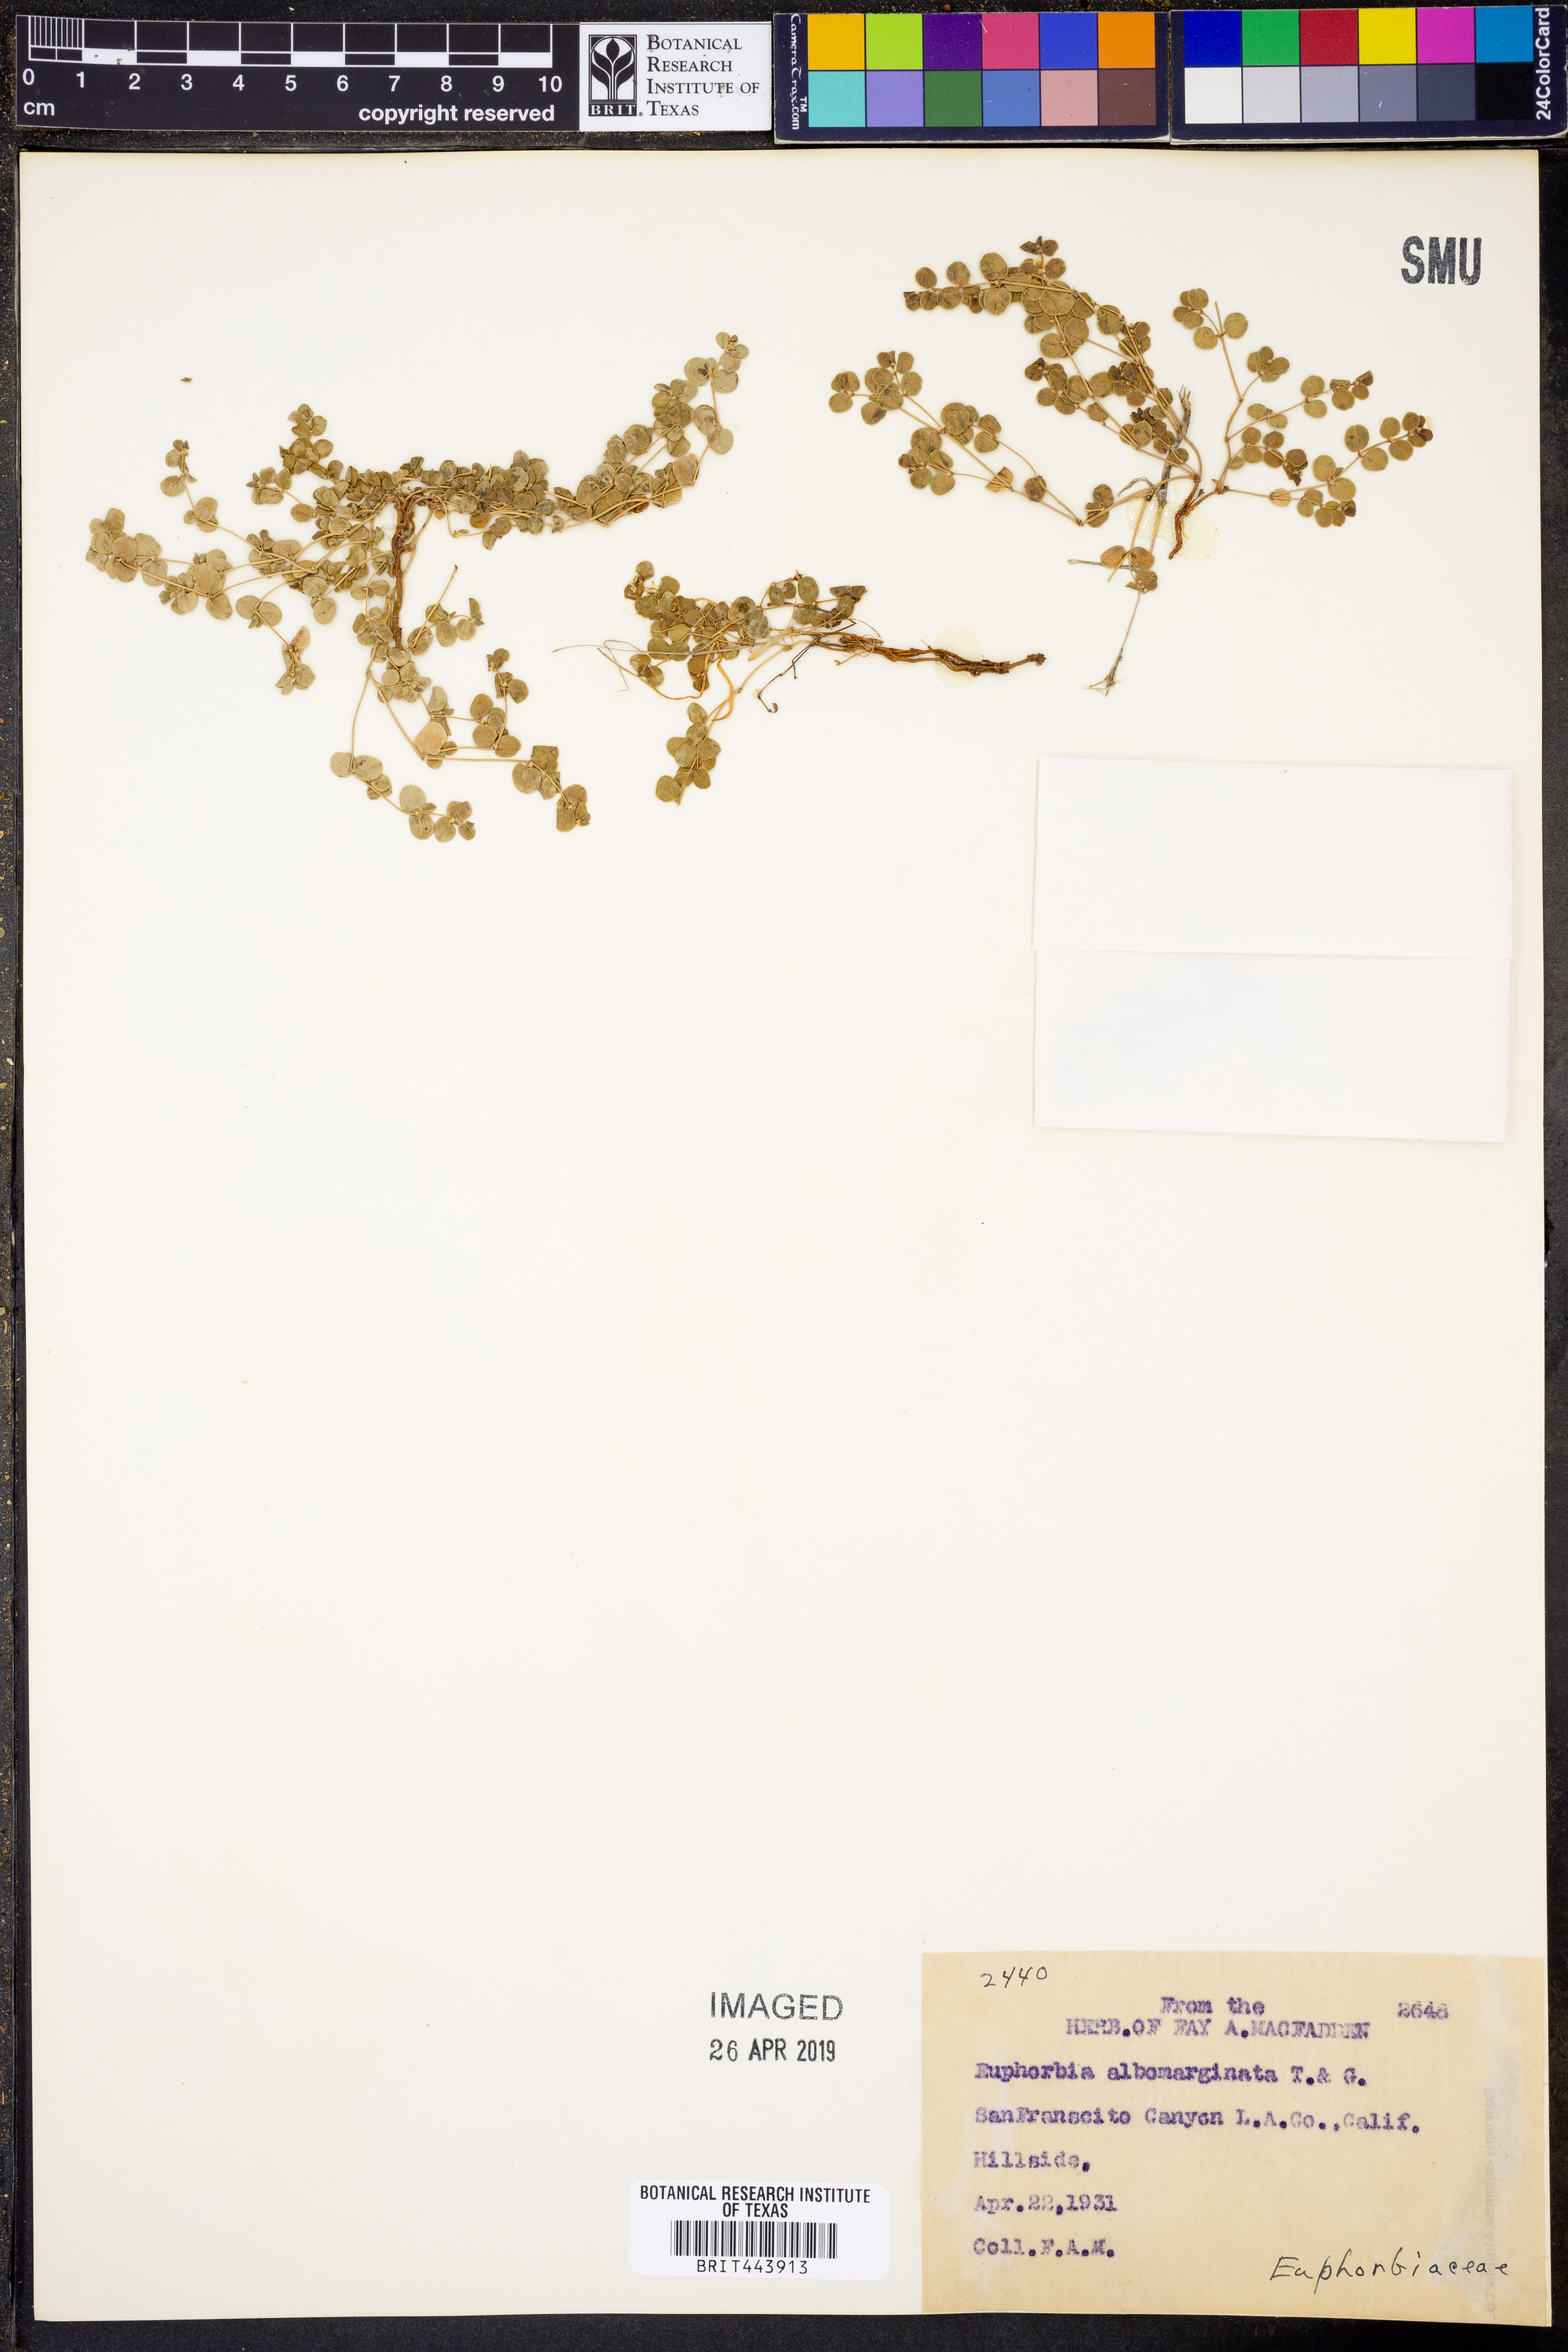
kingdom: Plantae
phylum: Tracheophyta
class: Magnoliopsida
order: Malpighiales
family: Euphorbiaceae
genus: Euphorbia
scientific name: Euphorbia albomarginata
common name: Whitemargin sandmat
